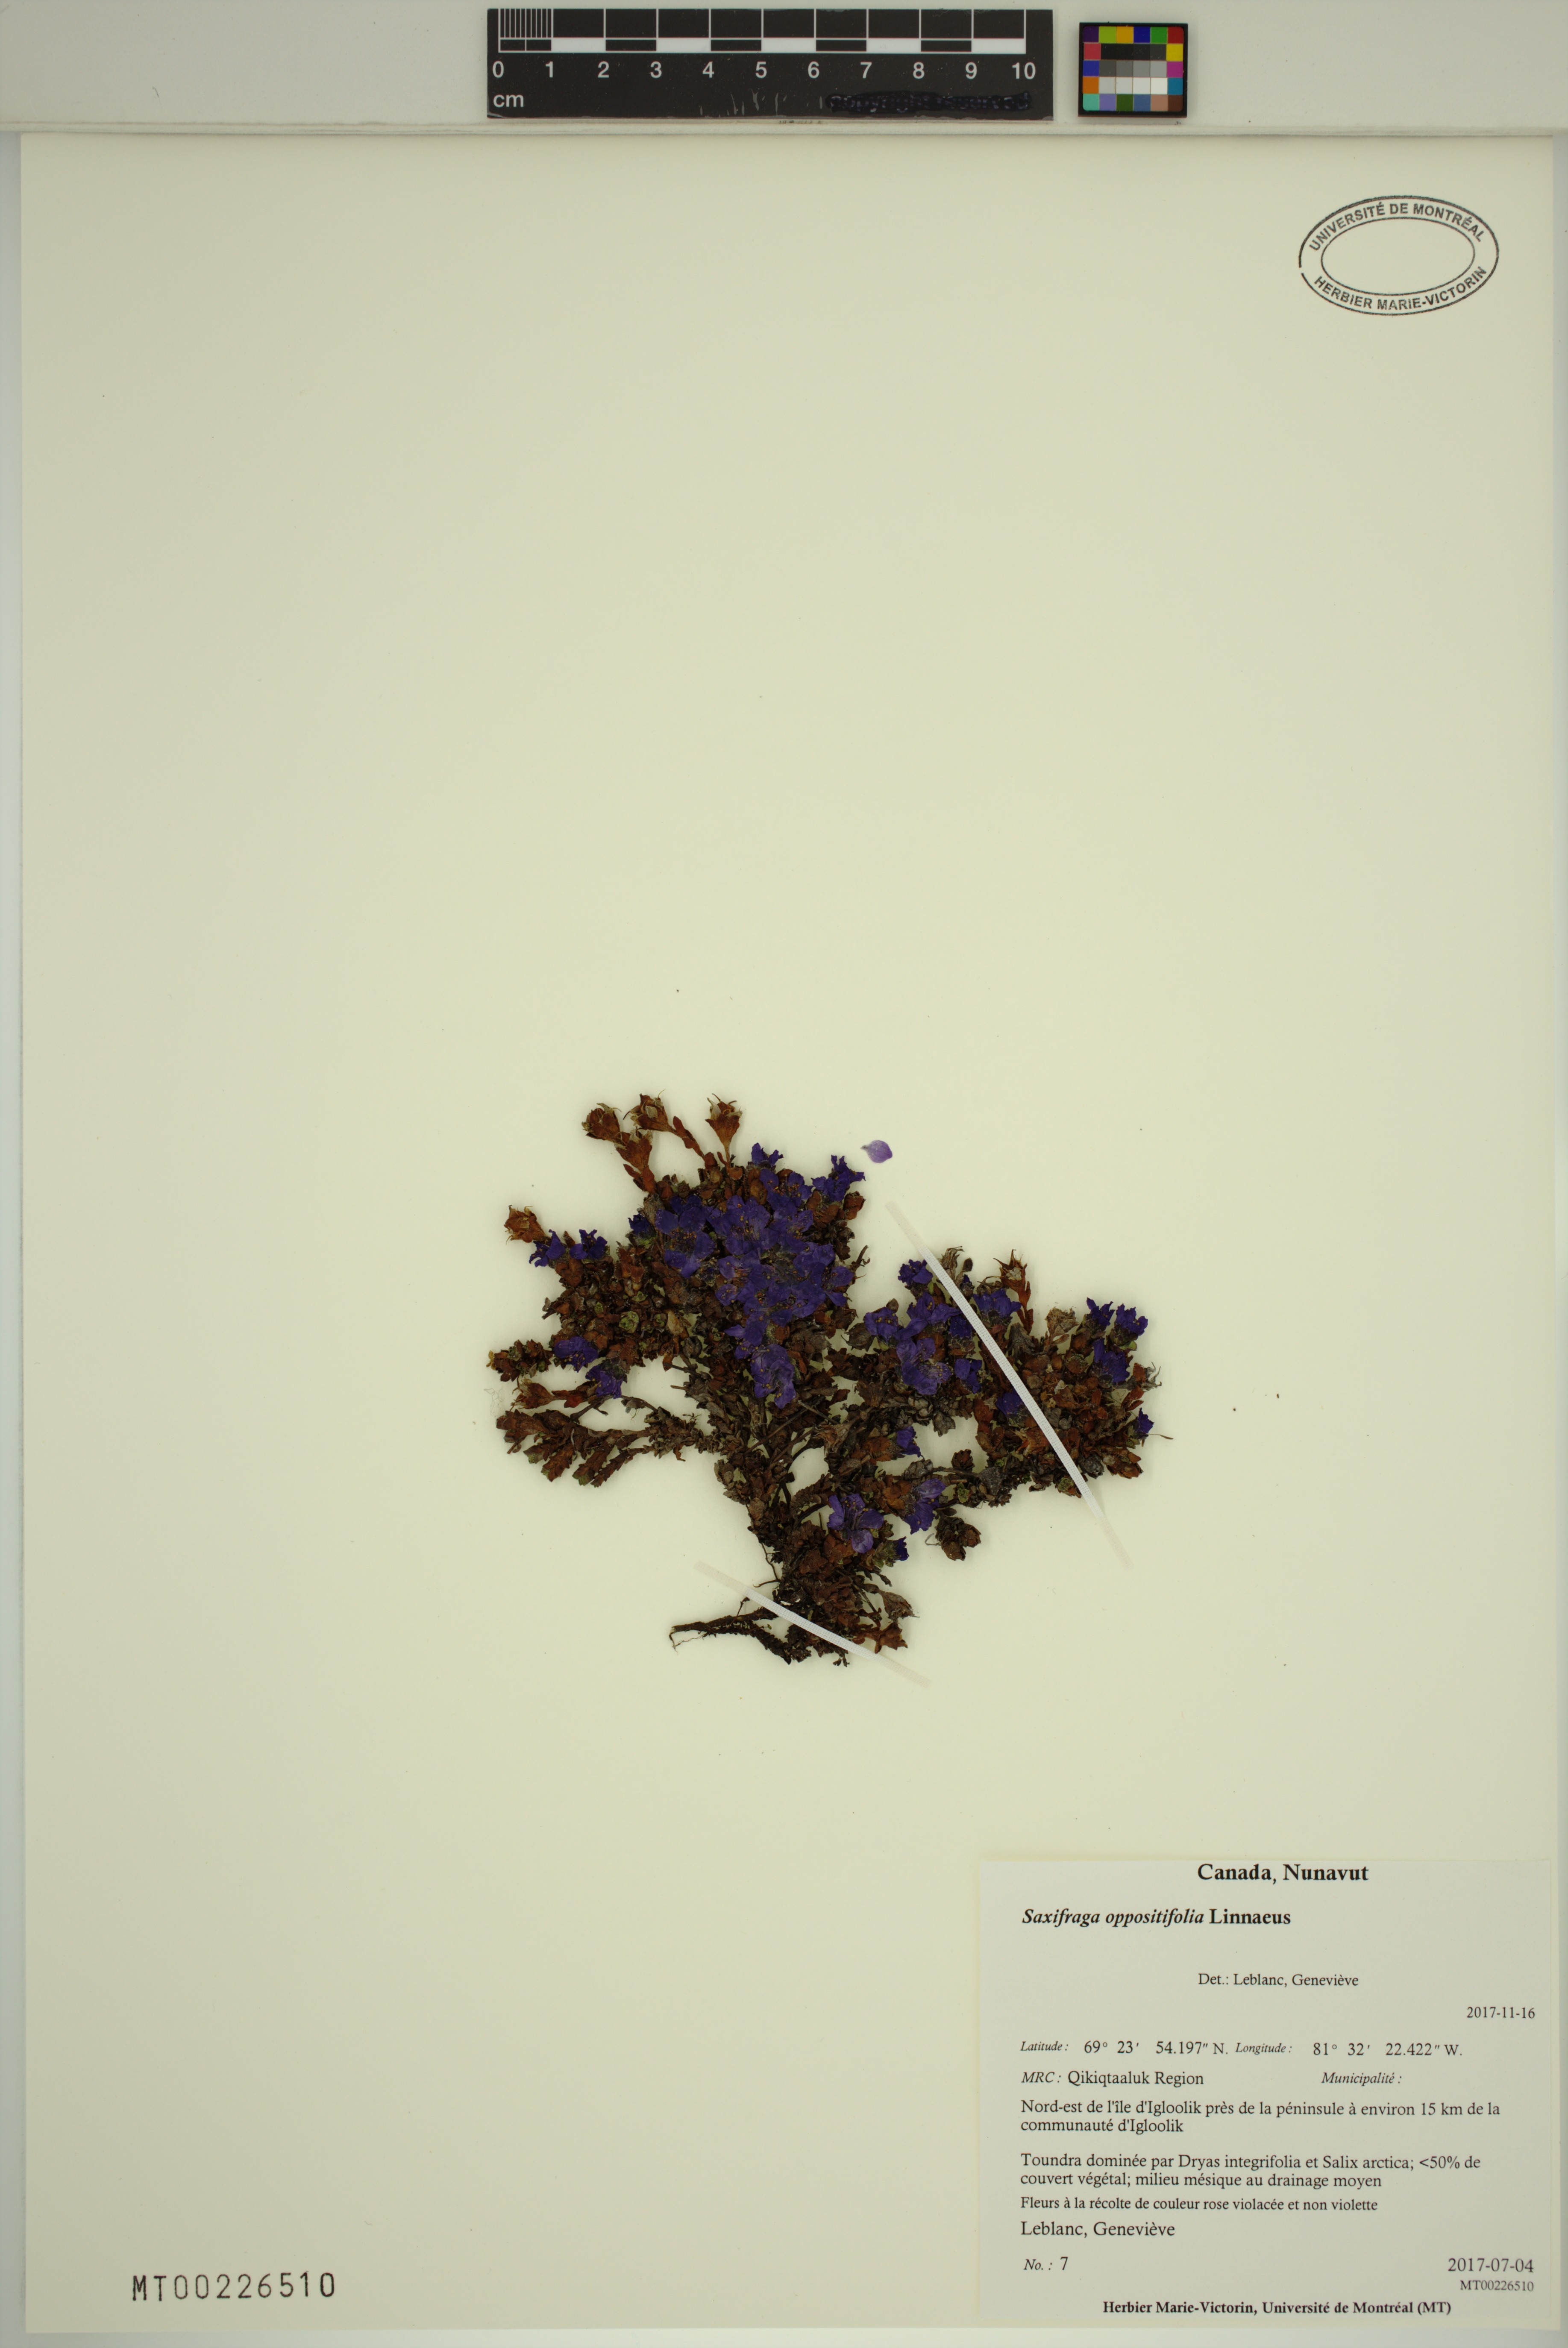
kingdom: Plantae
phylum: Tracheophyta
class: Magnoliopsida
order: Saxifragales
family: Saxifragaceae
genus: Saxifraga
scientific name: Saxifraga oppositifolia
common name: Purple saxifrage
